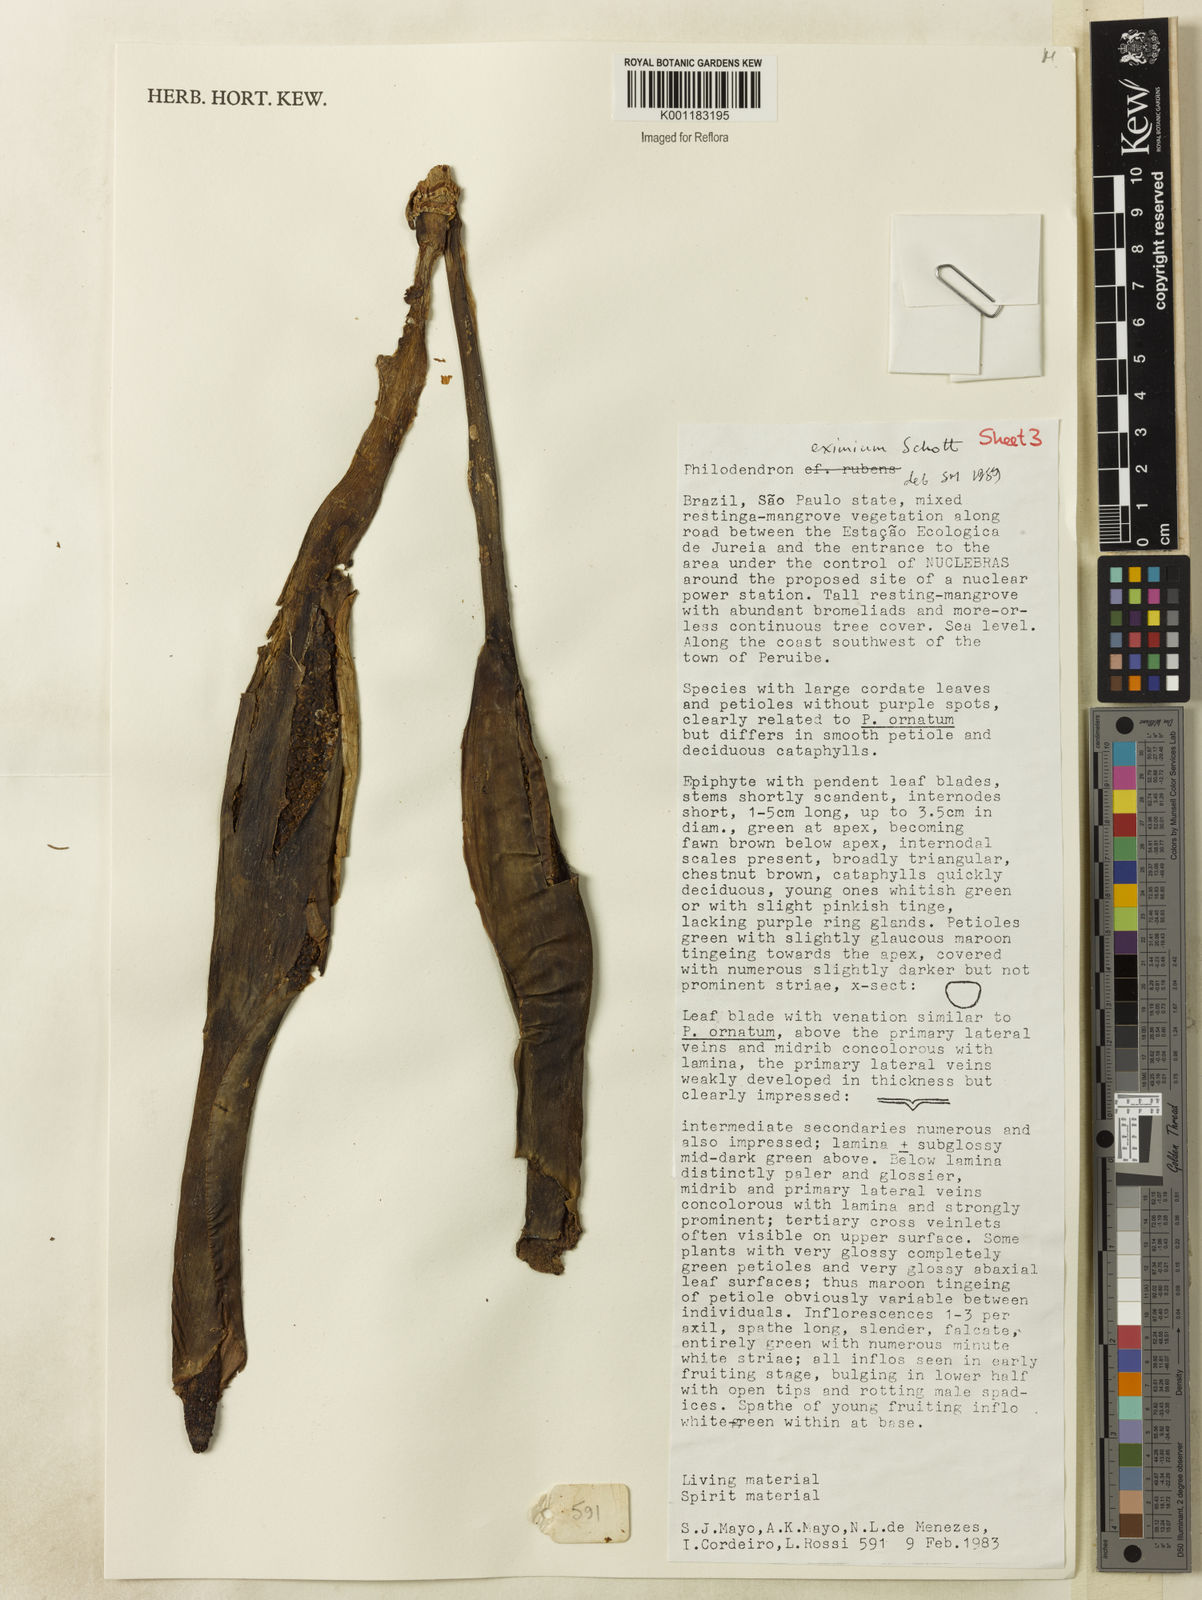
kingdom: Plantae
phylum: Tracheophyta
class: Liliopsida
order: Alismatales
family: Araceae
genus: Philodendron
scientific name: Philodendron eximium
